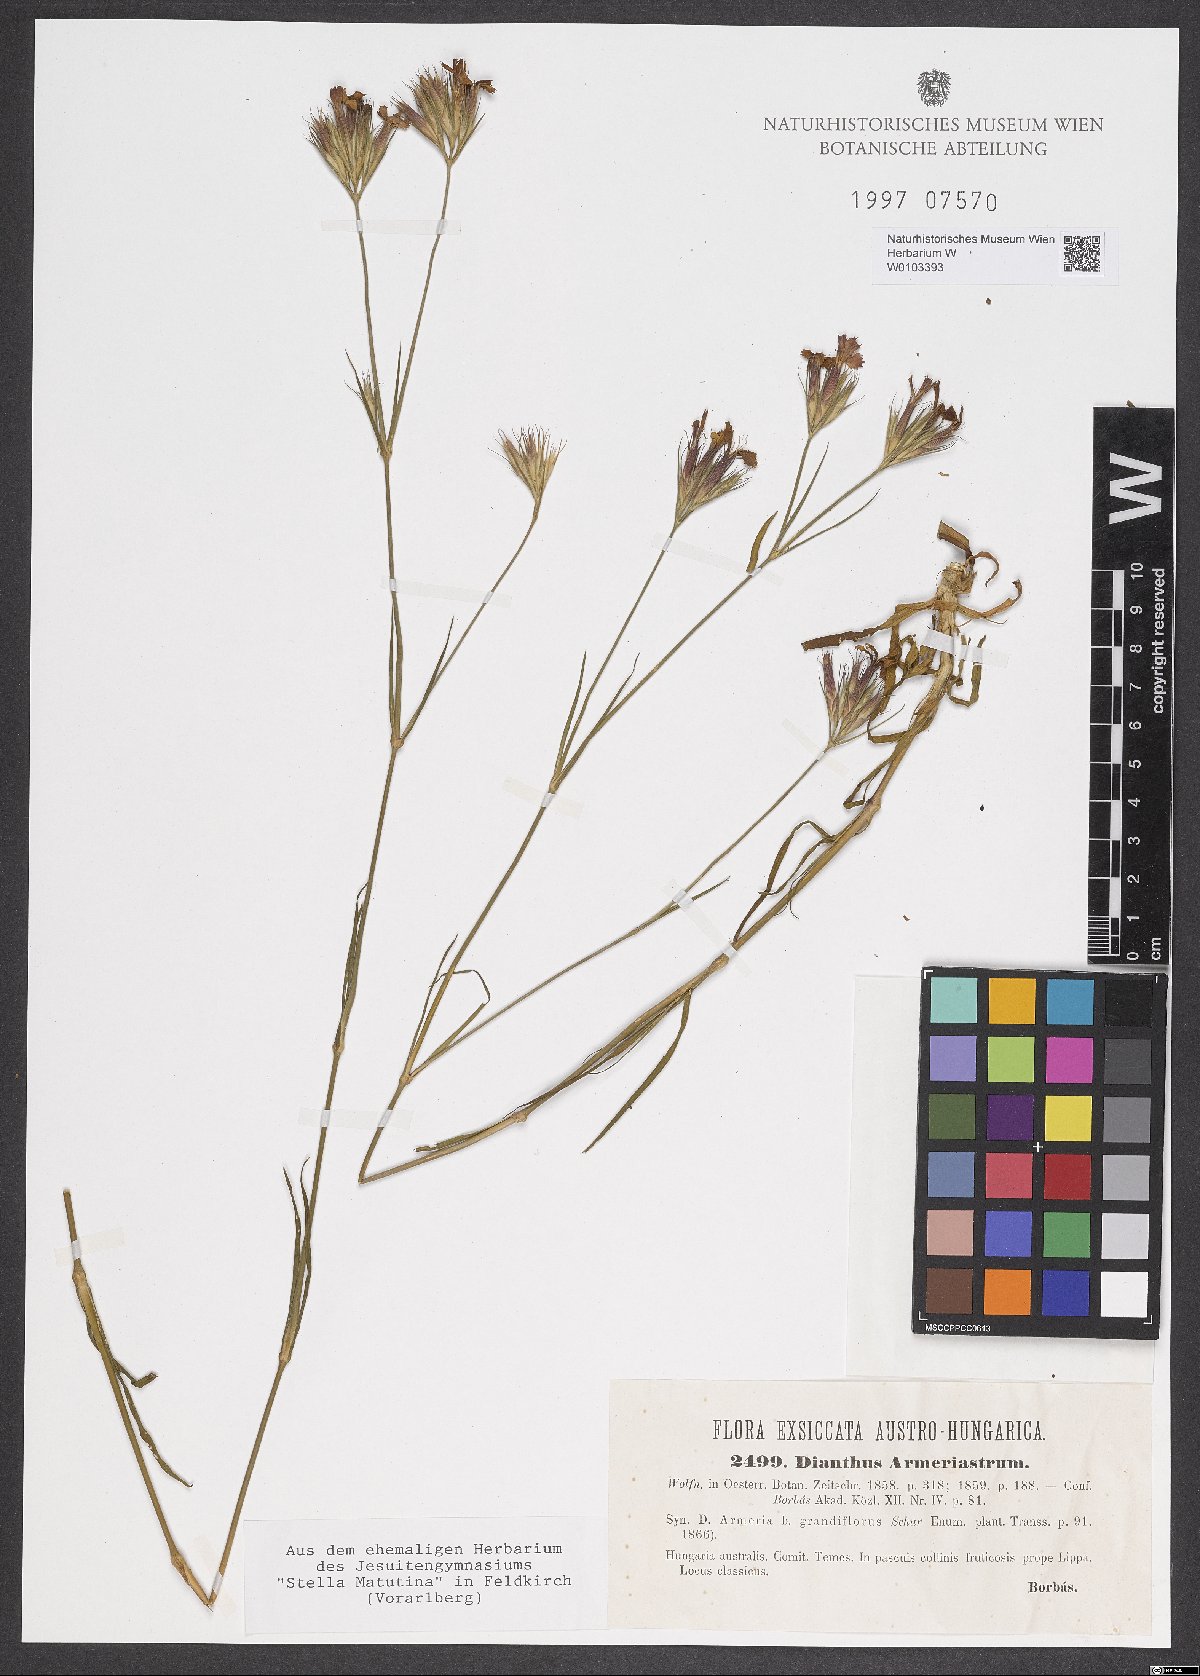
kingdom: Plantae
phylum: Tracheophyta
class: Magnoliopsida
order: Caryophyllales
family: Caryophyllaceae
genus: Dianthus
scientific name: Dianthus corymbosus
